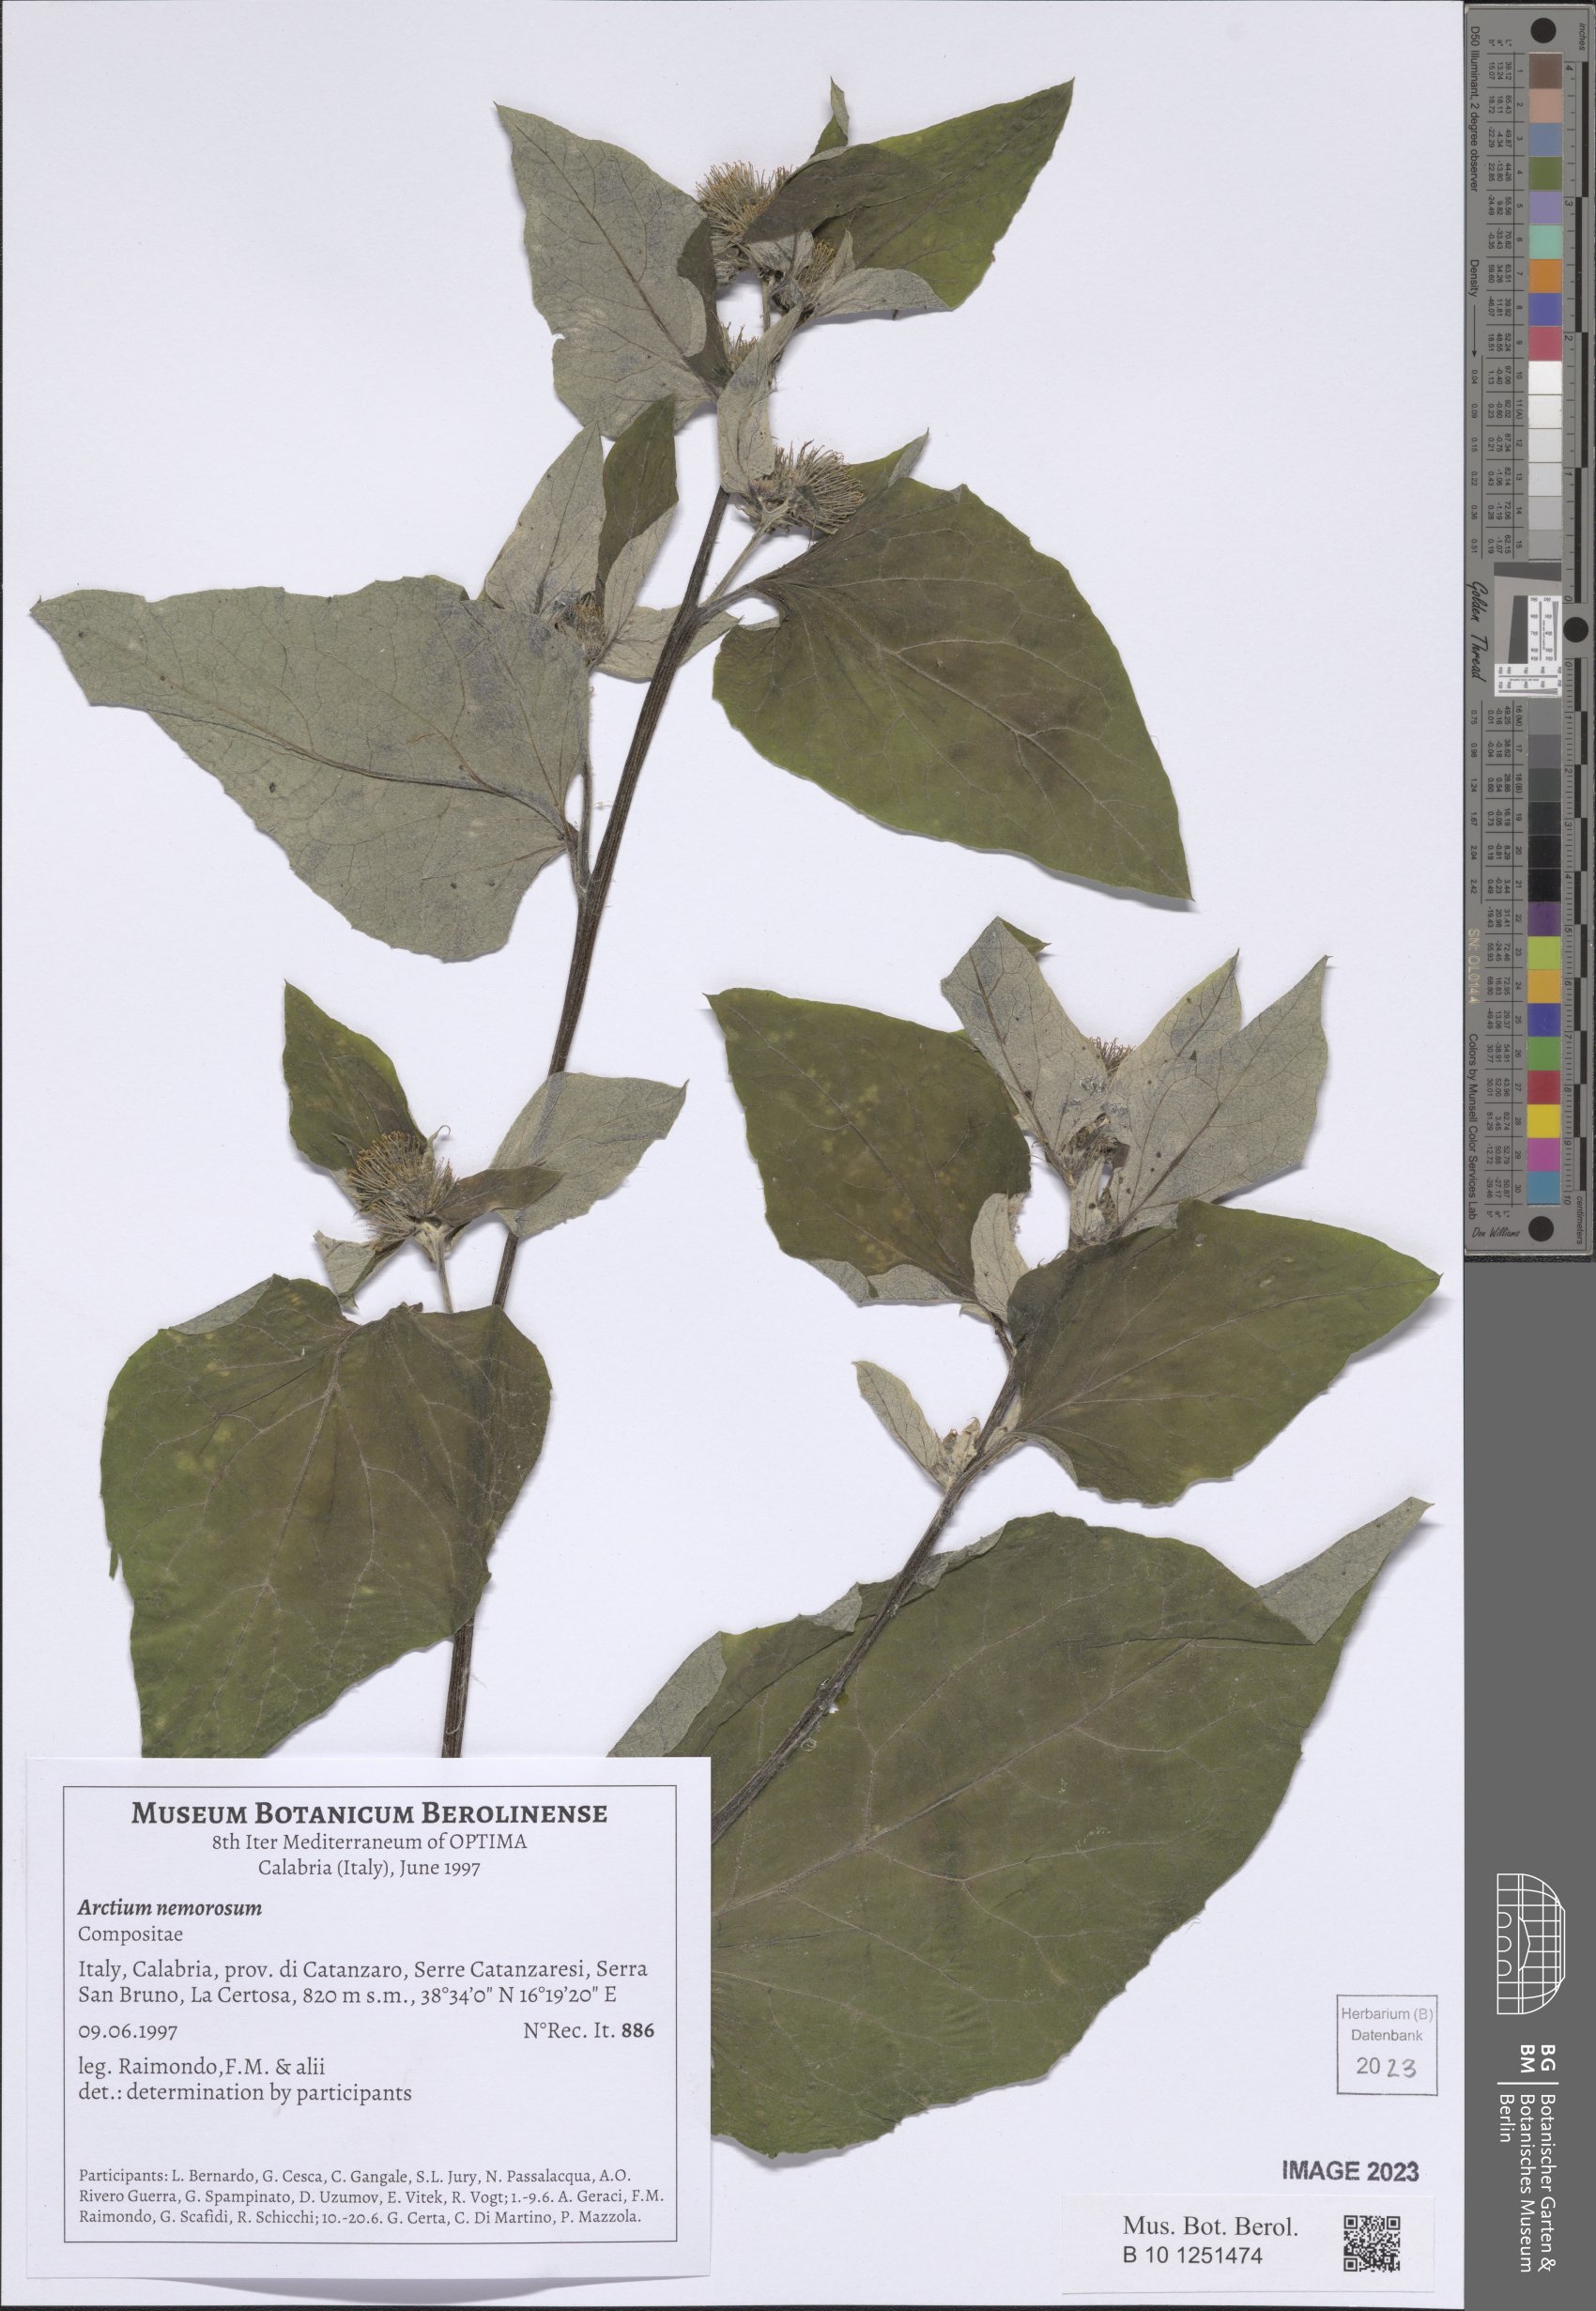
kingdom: Plantae
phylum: Tracheophyta
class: Magnoliopsida
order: Asterales
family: Asteraceae
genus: Arctium
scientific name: Arctium nemorosum
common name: Wood burdock
